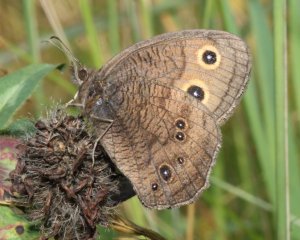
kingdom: Animalia
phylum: Arthropoda
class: Insecta
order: Lepidoptera
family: Nymphalidae
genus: Cercyonis
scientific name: Cercyonis pegala
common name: Common Wood-Nymph
